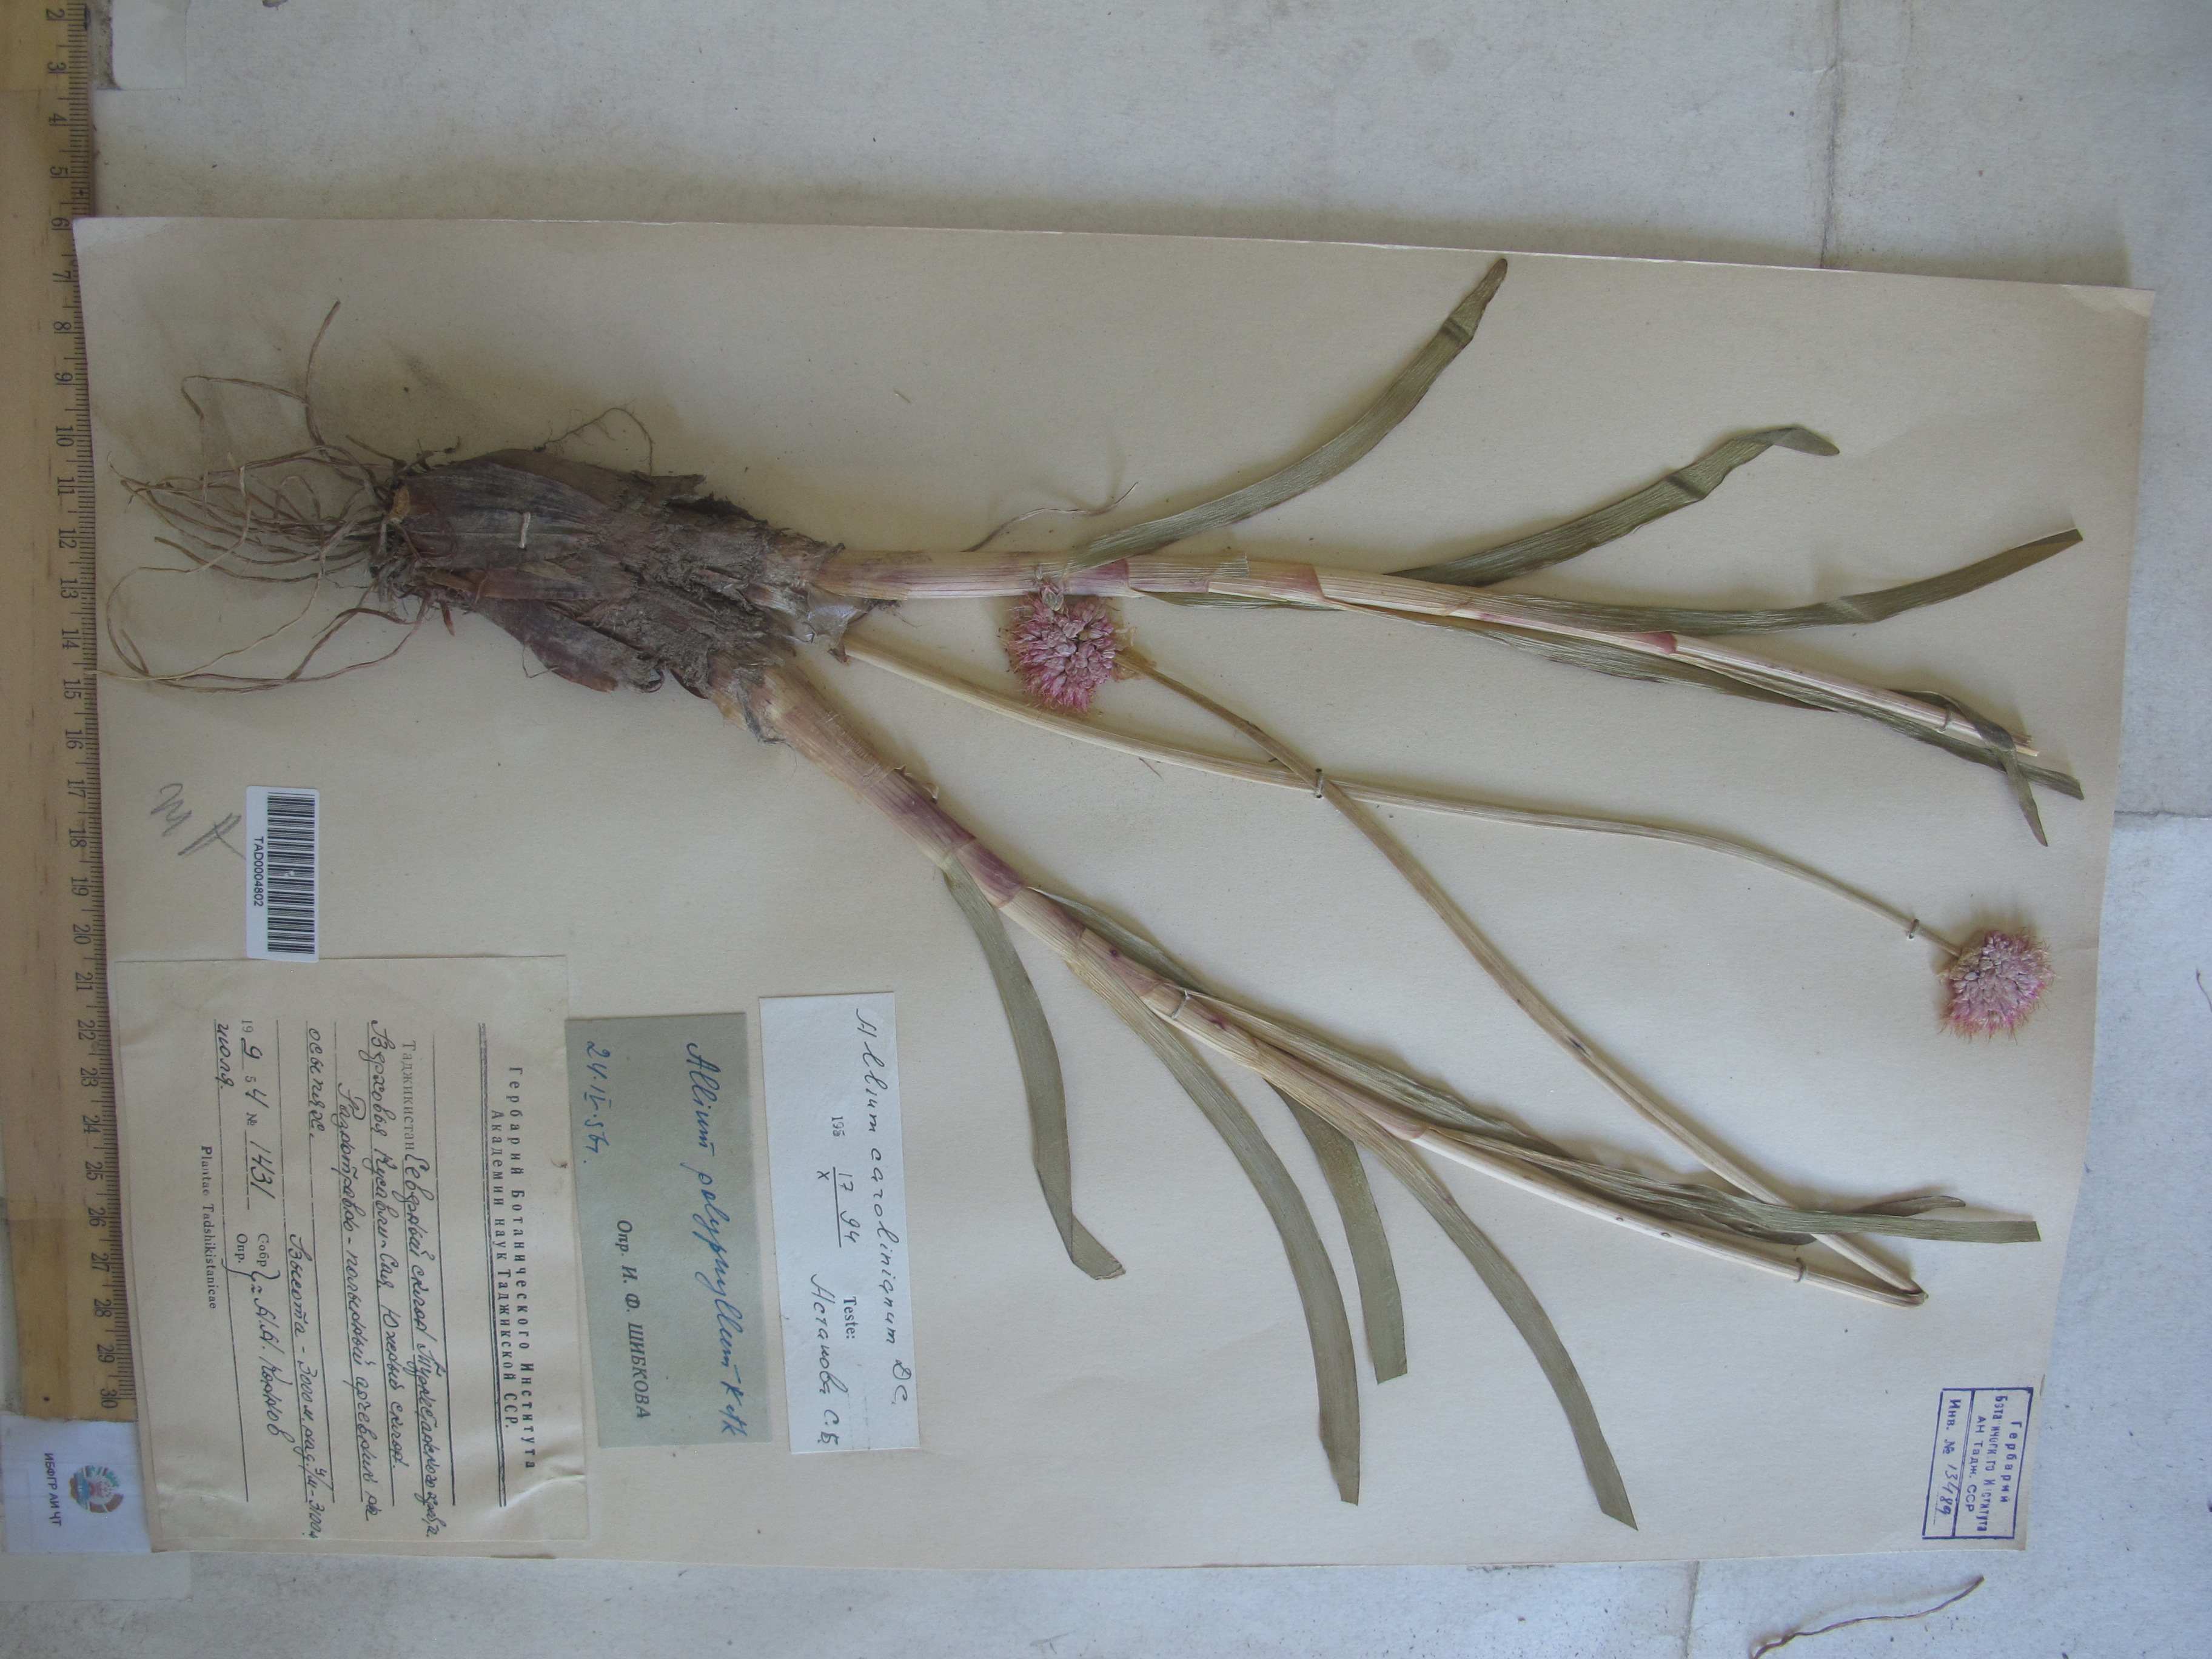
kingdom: Plantae
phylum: Tracheophyta
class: Liliopsida
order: Asparagales
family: Amaryllidaceae
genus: Allium
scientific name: Allium carolinianum
